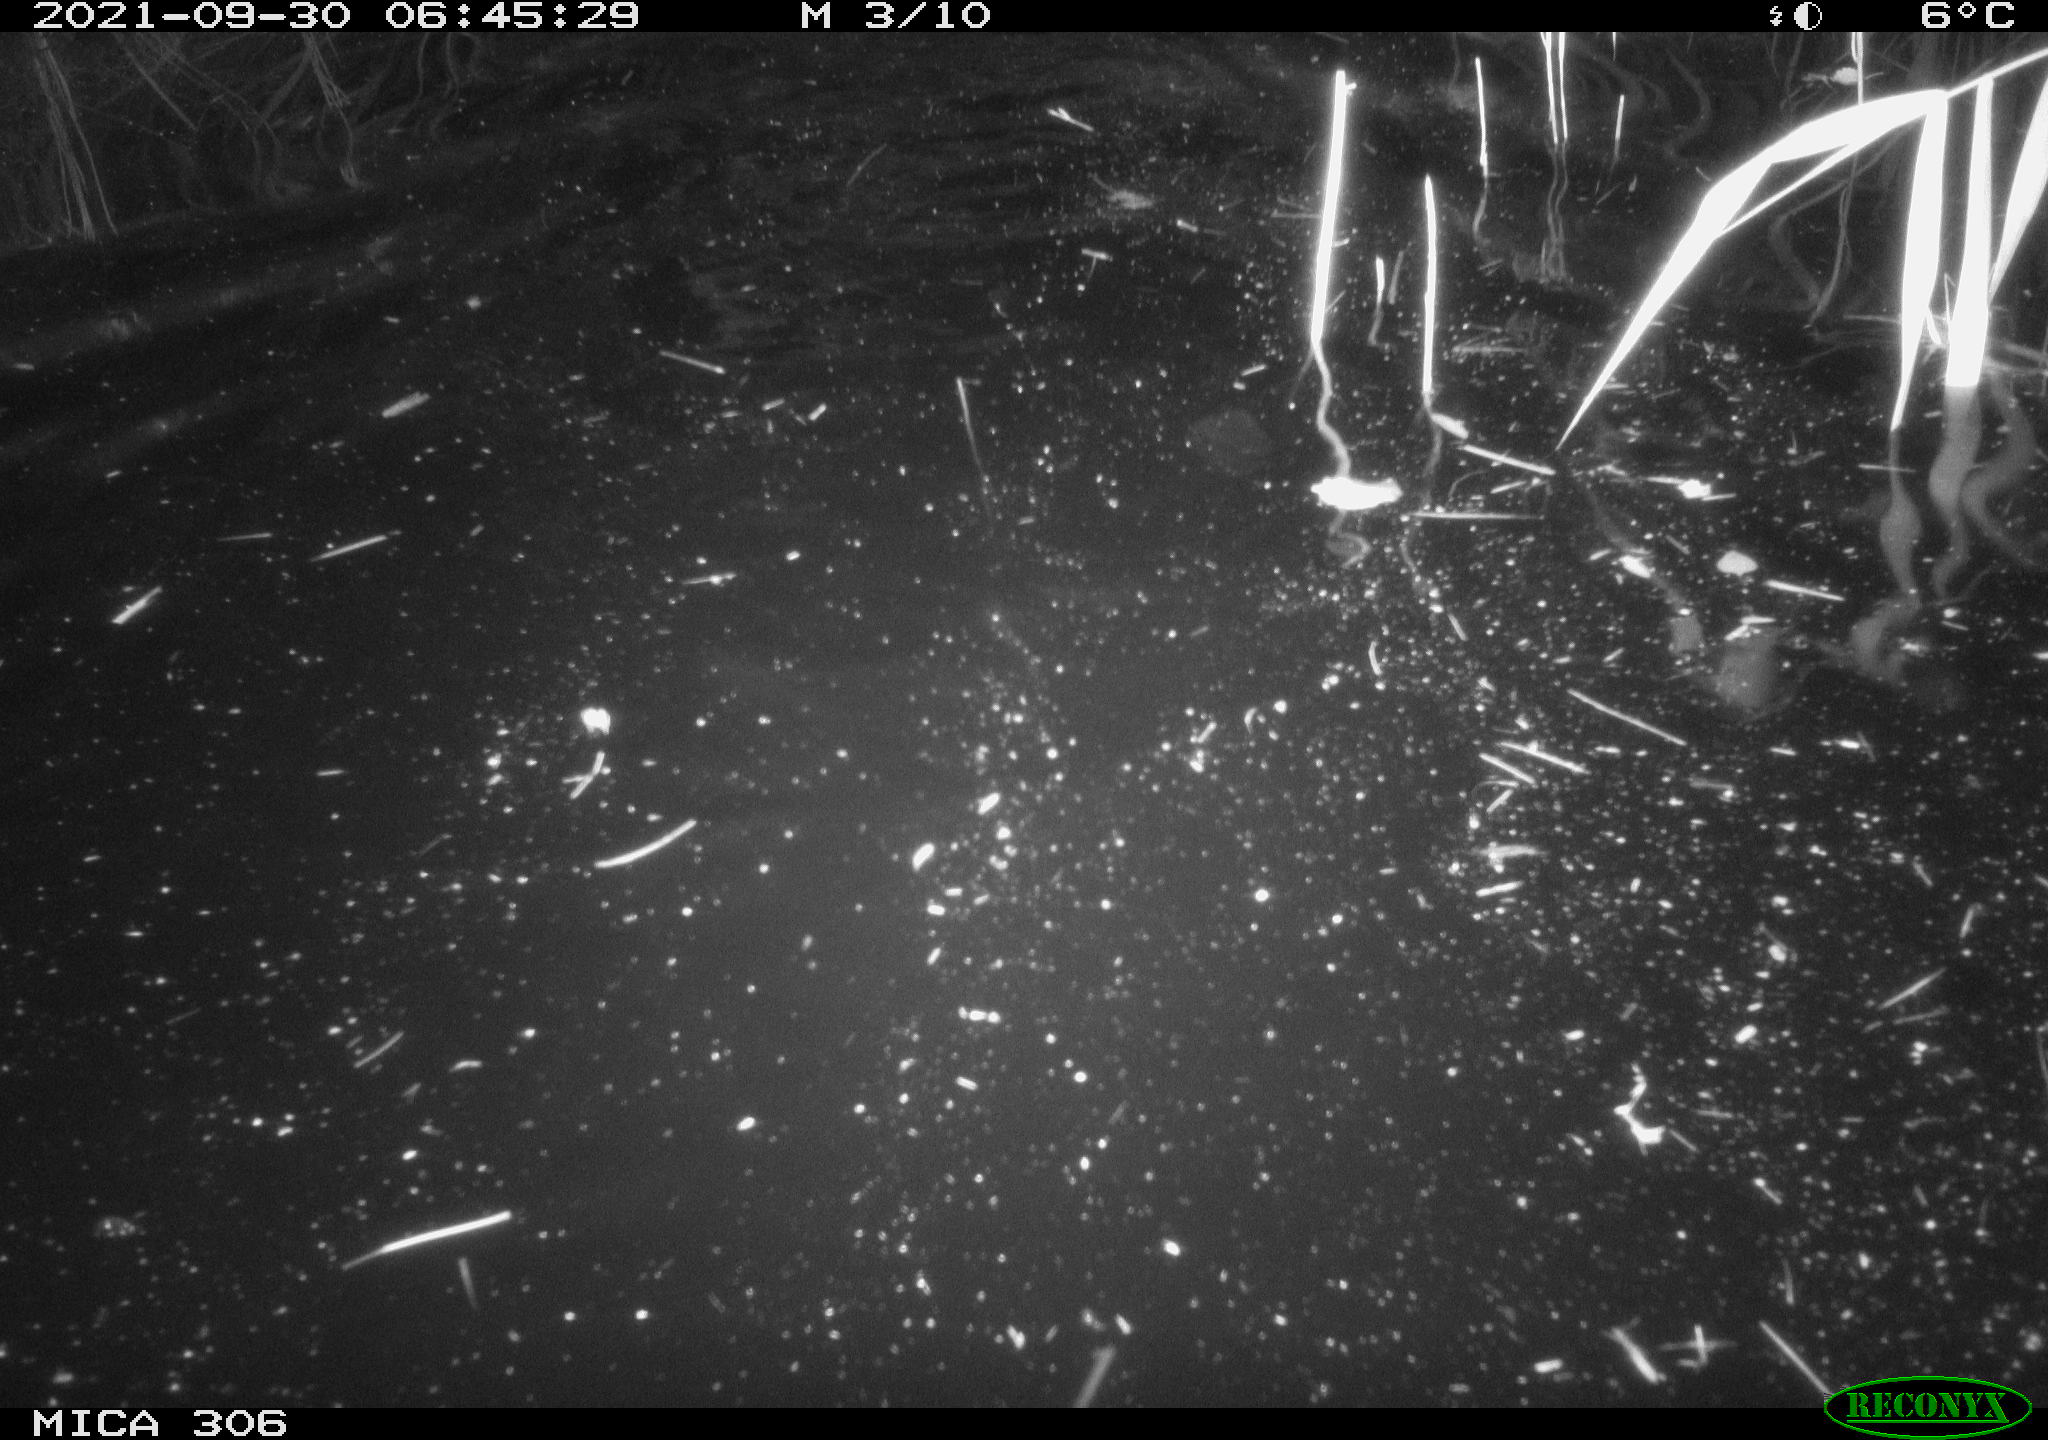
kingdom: Animalia
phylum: Chordata
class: Mammalia
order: Rodentia
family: Cricetidae
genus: Ondatra
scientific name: Ondatra zibethicus
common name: Muskrat
